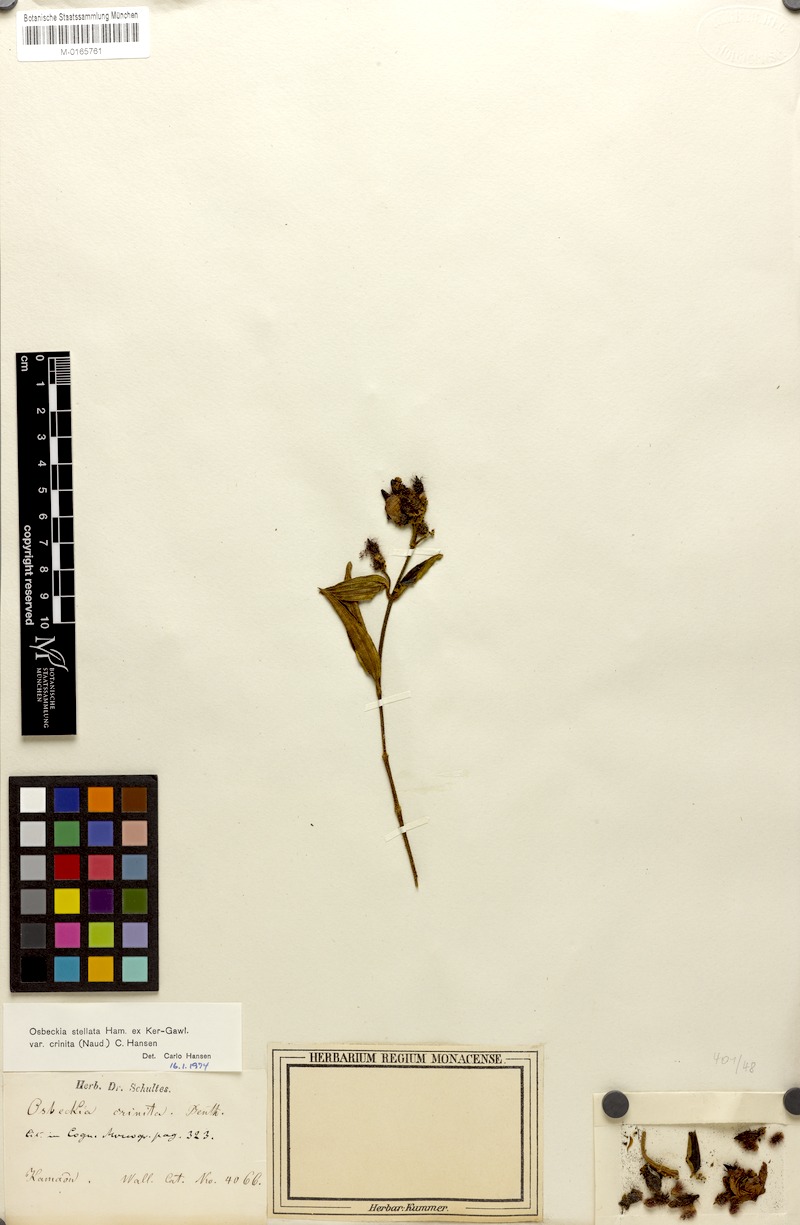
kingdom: Plantae
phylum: Tracheophyta
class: Magnoliopsida
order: Myrtales
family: Melastomataceae
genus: Osbeckia
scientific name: Osbeckia crinita
